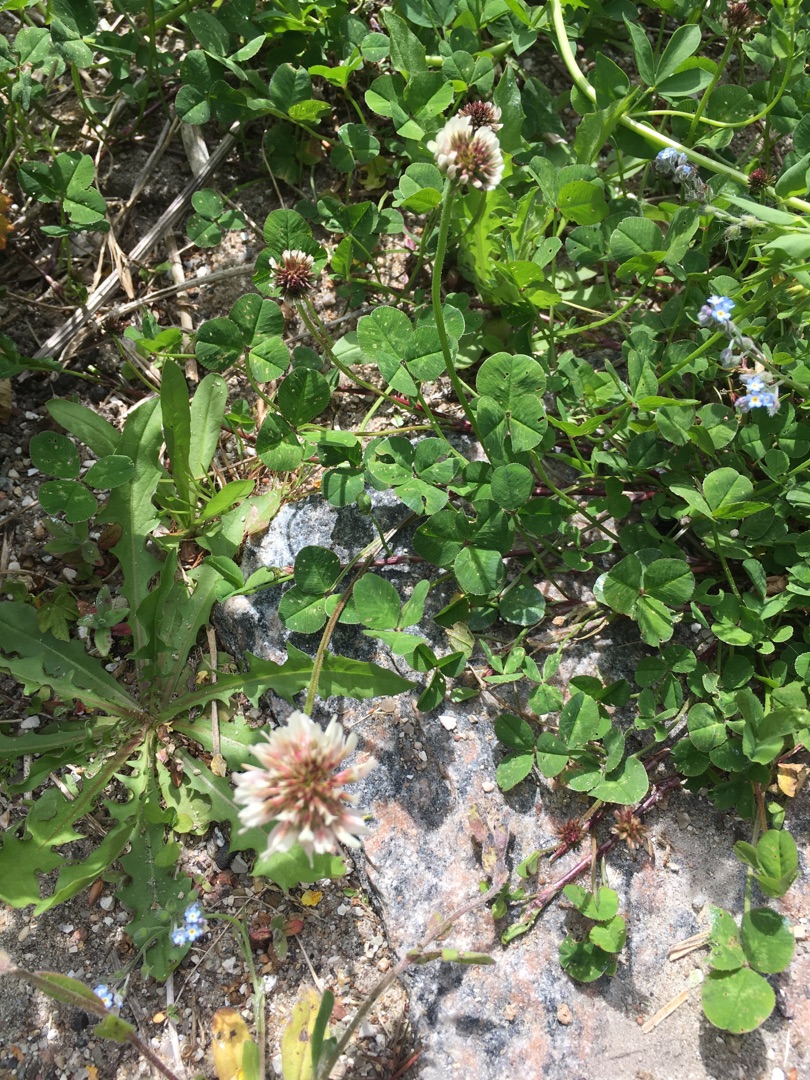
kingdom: Plantae
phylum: Tracheophyta
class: Magnoliopsida
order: Fabales
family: Fabaceae
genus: Trifolium
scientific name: Trifolium repens
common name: Hvid-kløver
